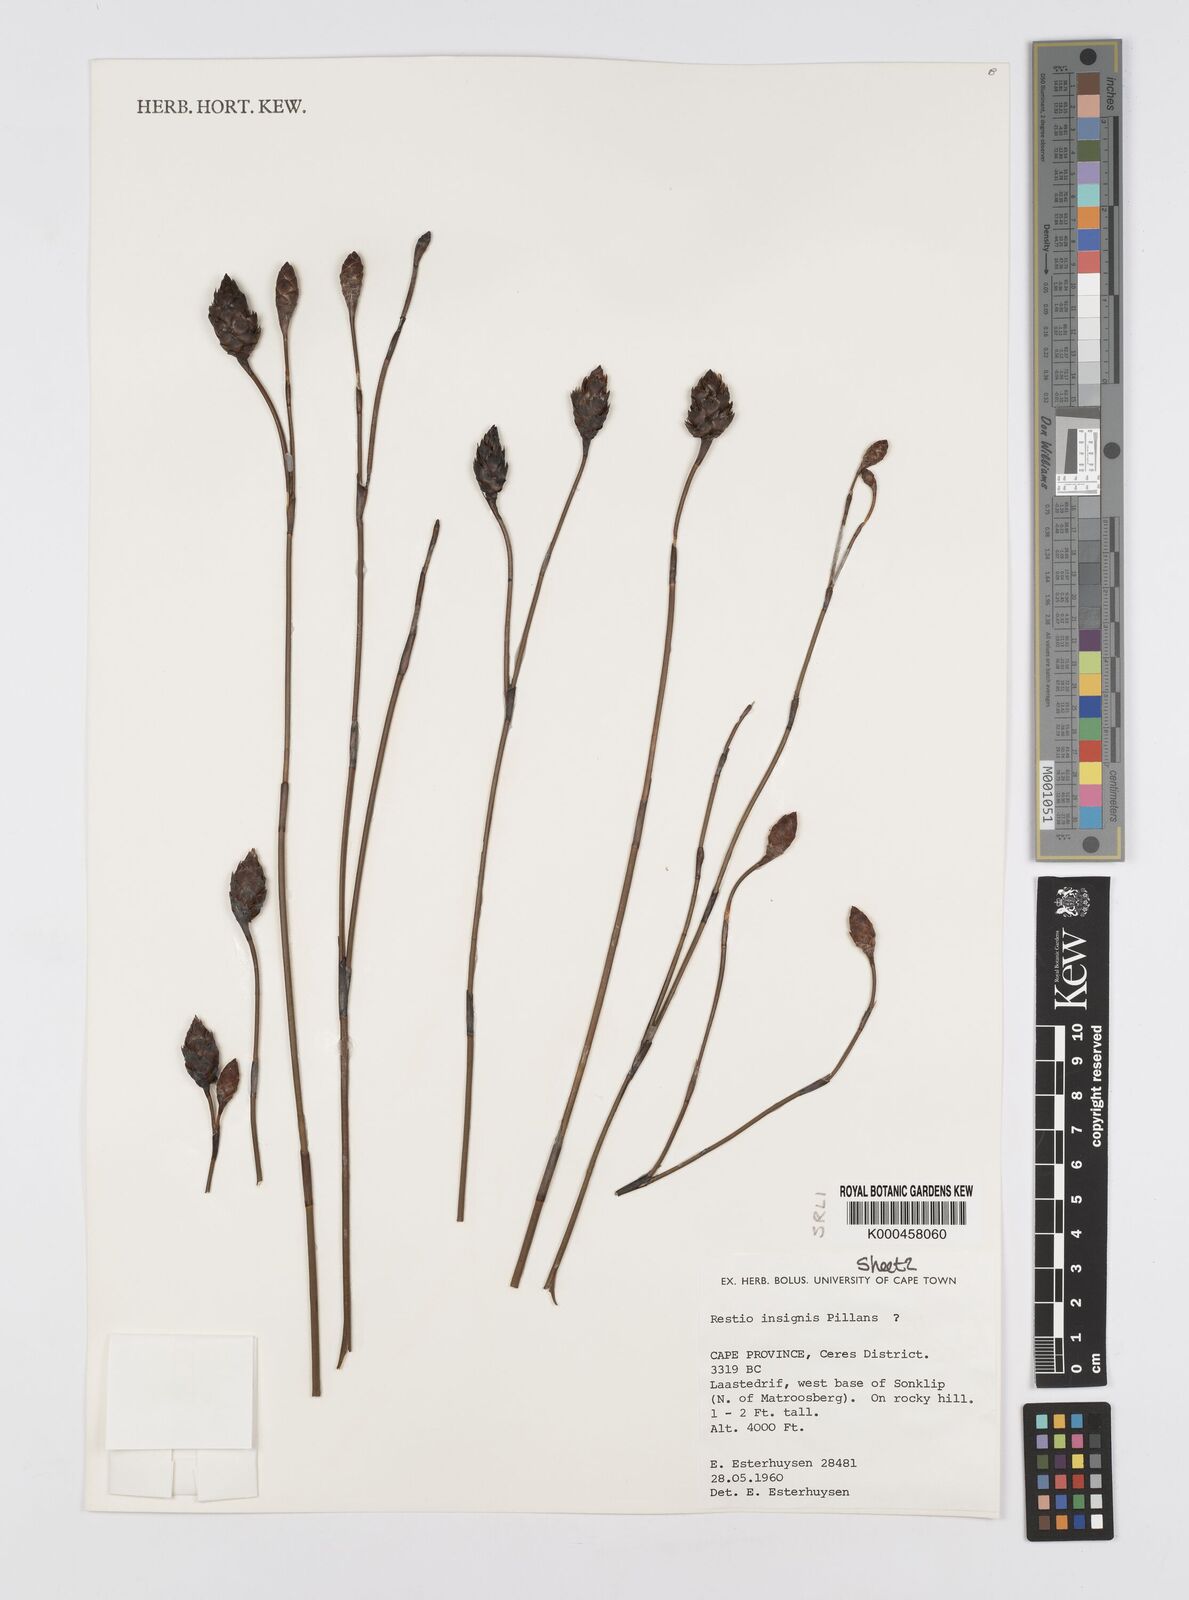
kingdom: Plantae
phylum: Tracheophyta
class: Liliopsida
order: Poales
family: Restionaceae
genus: Restio
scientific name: Restio insignis
